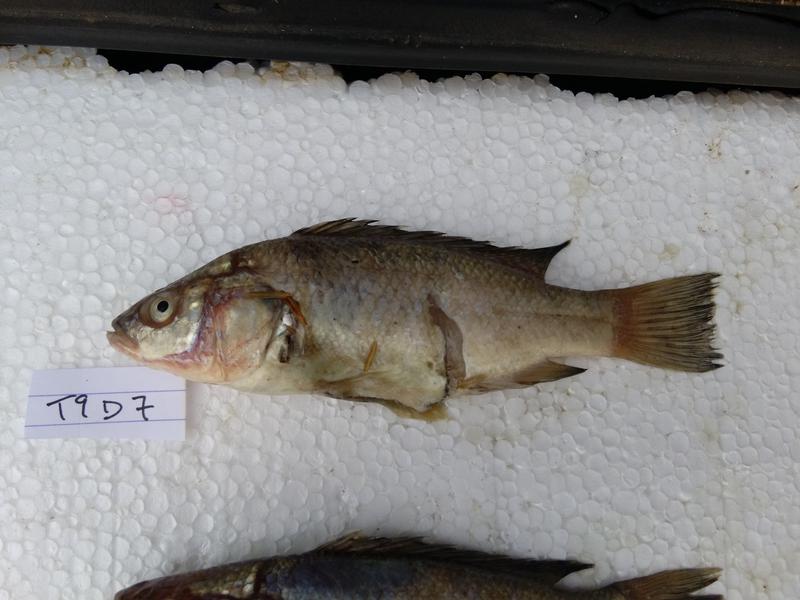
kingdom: Animalia
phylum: Chordata
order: Perciformes
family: Cichlidae
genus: Oreochromis
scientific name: Oreochromis amphimelas
